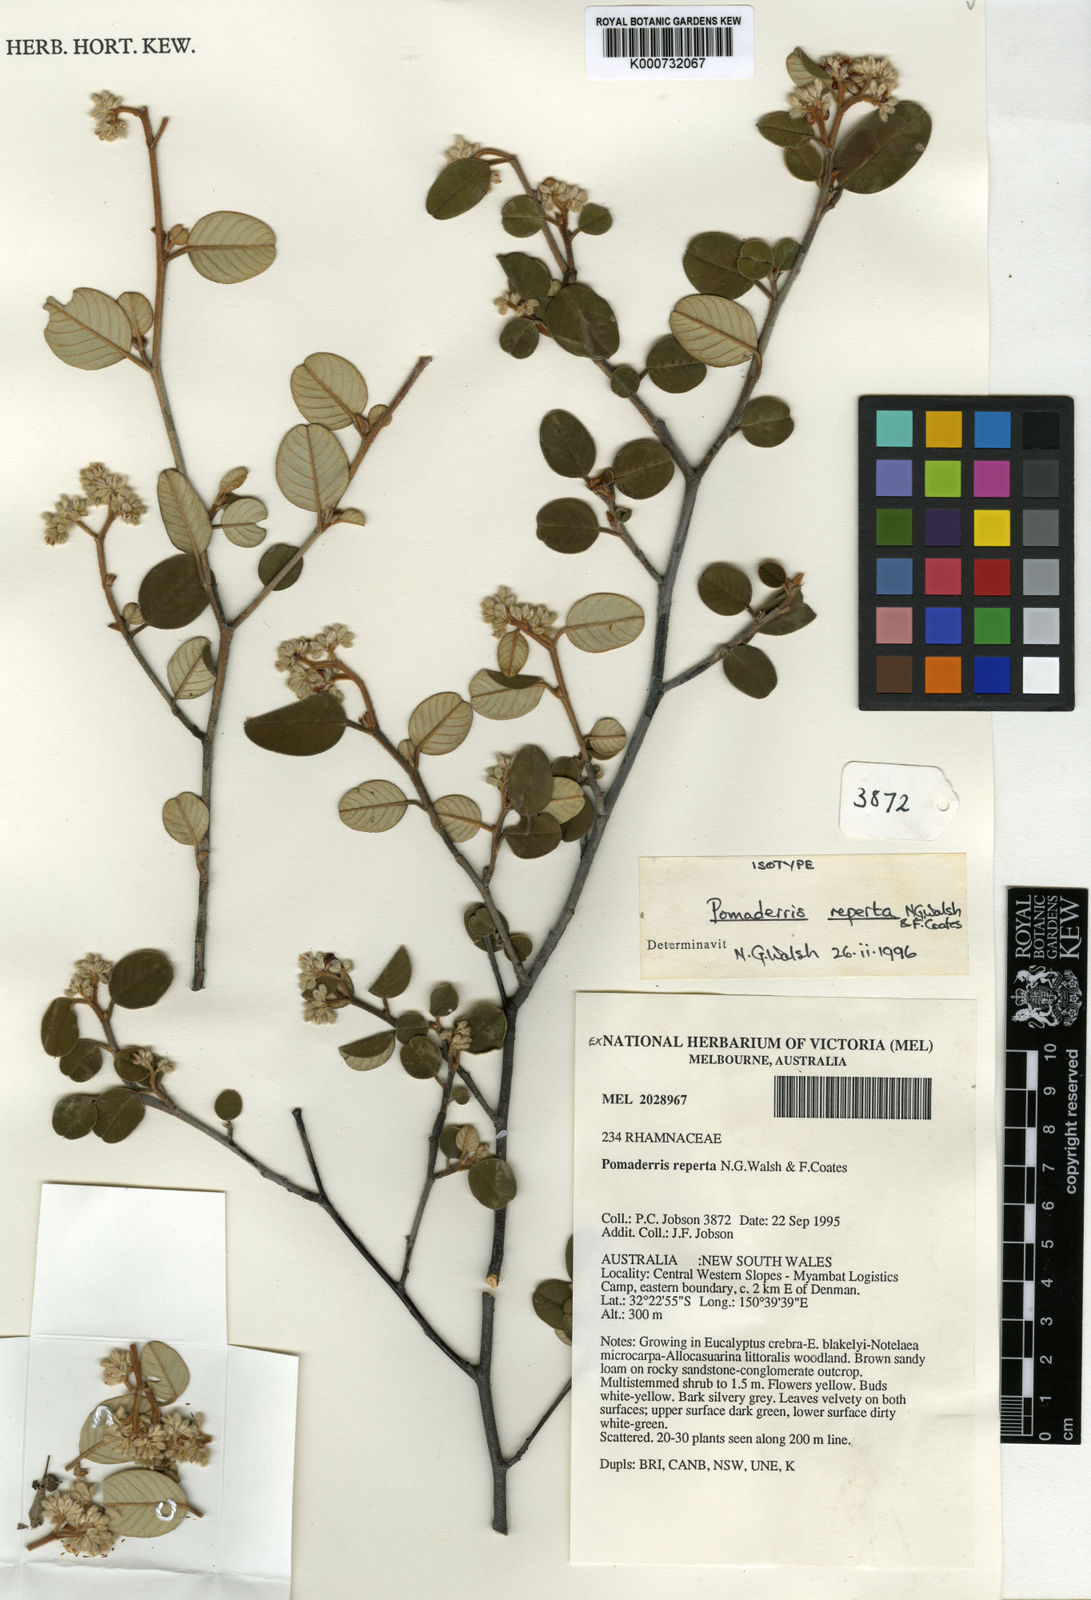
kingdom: Plantae
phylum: Tracheophyta
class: Magnoliopsida
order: Rosales
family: Rhamnaceae
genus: Pomaderris
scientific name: Pomaderris reperta
